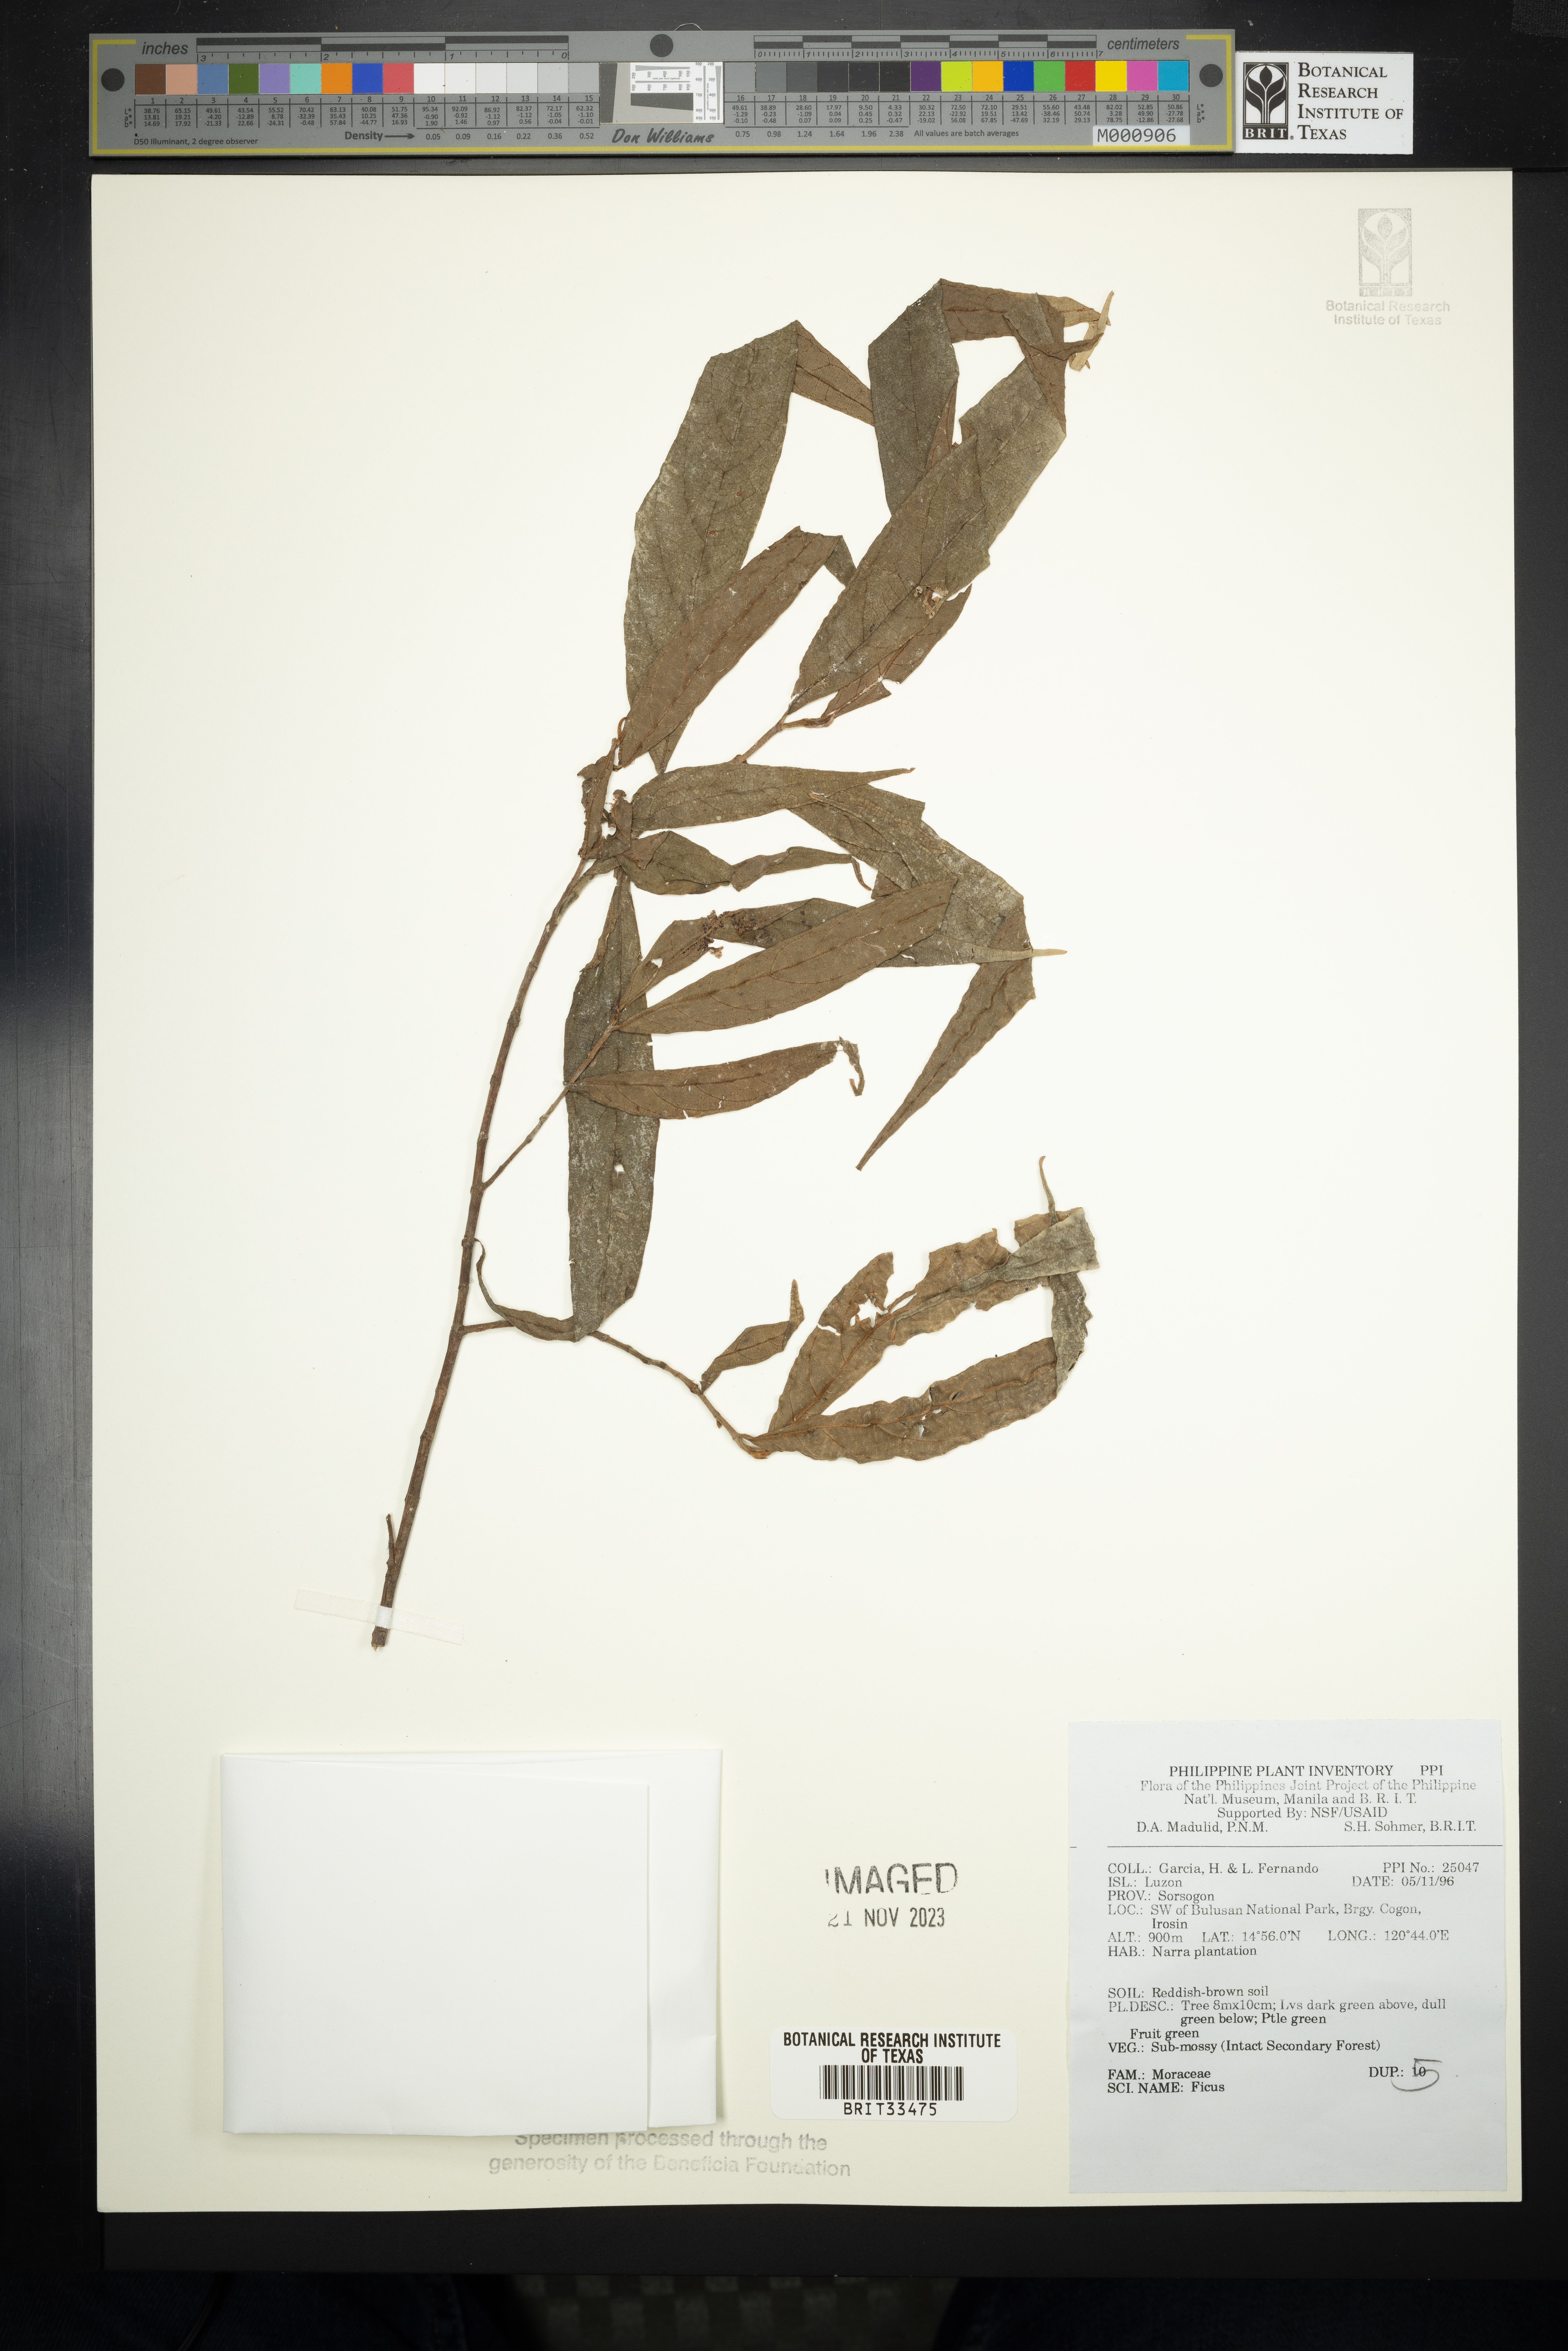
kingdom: Plantae
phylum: Tracheophyta
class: Magnoliopsida
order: Rosales
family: Moraceae
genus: Ficus
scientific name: Ficus
